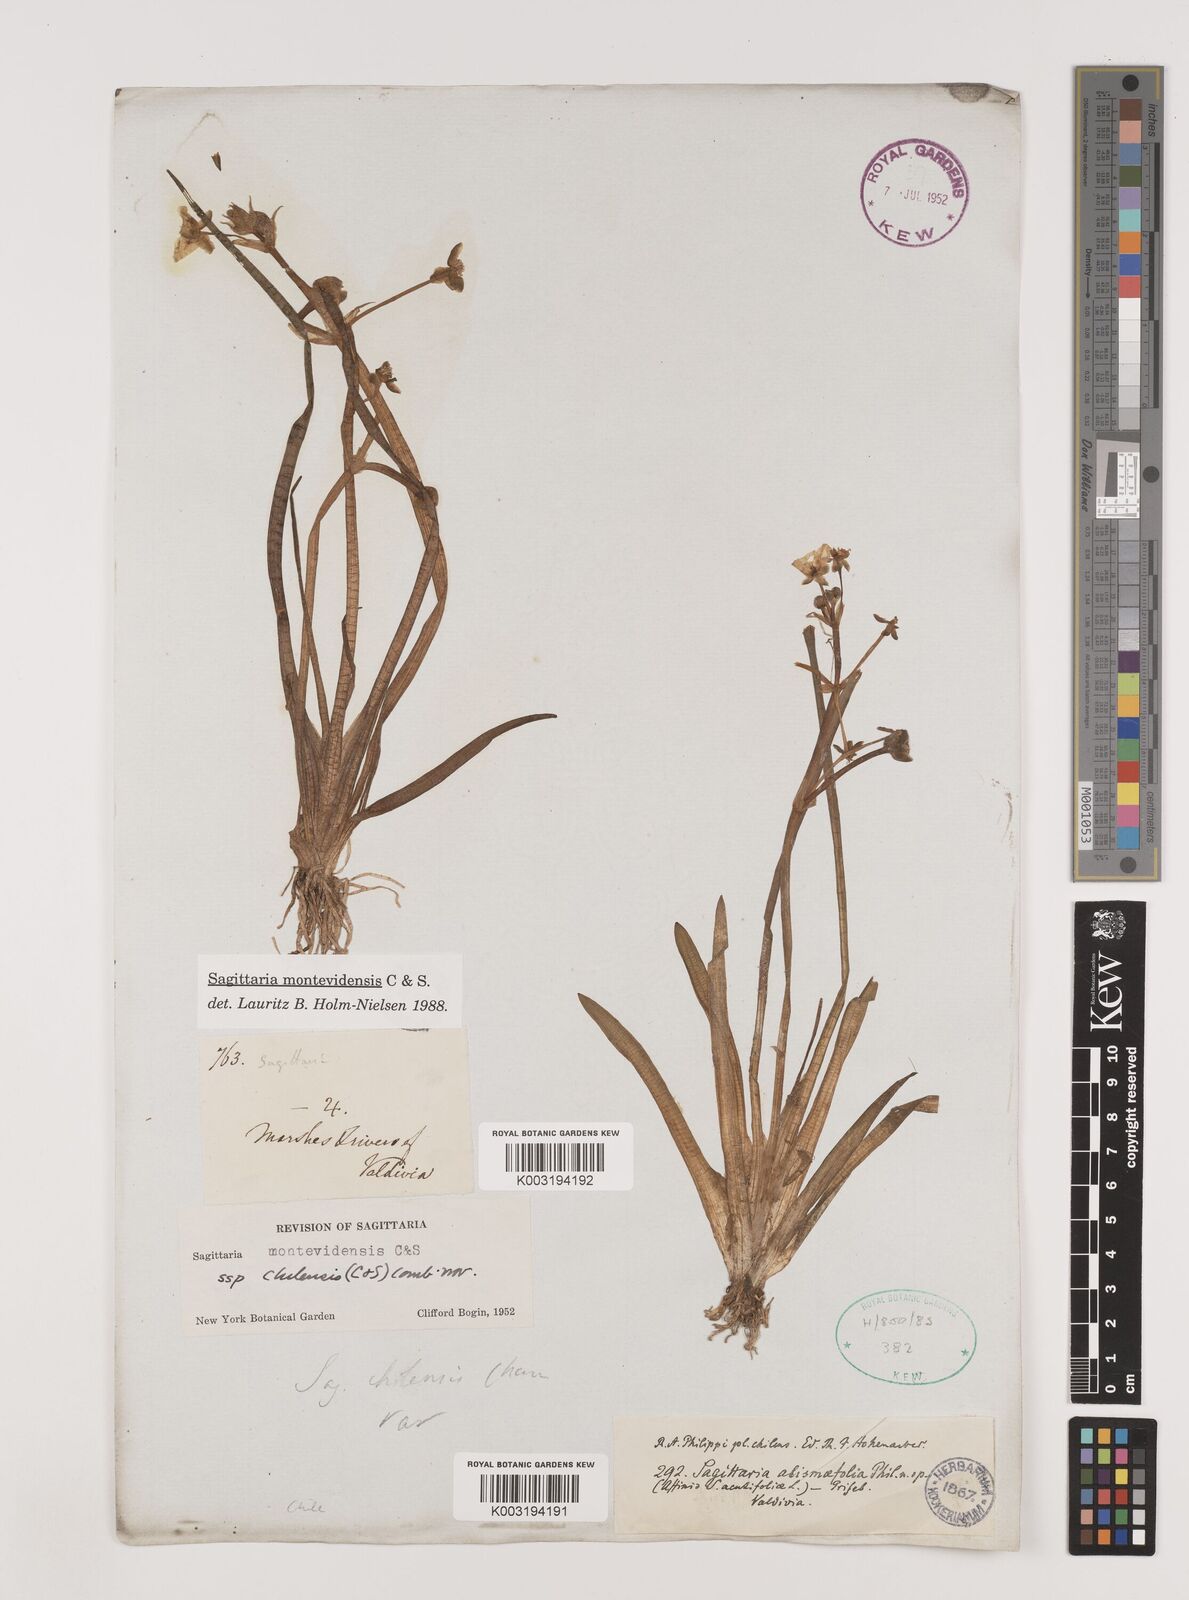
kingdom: Plantae
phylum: Tracheophyta
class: Liliopsida
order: Alismatales
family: Alismataceae
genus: Sagittaria
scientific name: Sagittaria montevidensis
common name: Giant arrowhead
